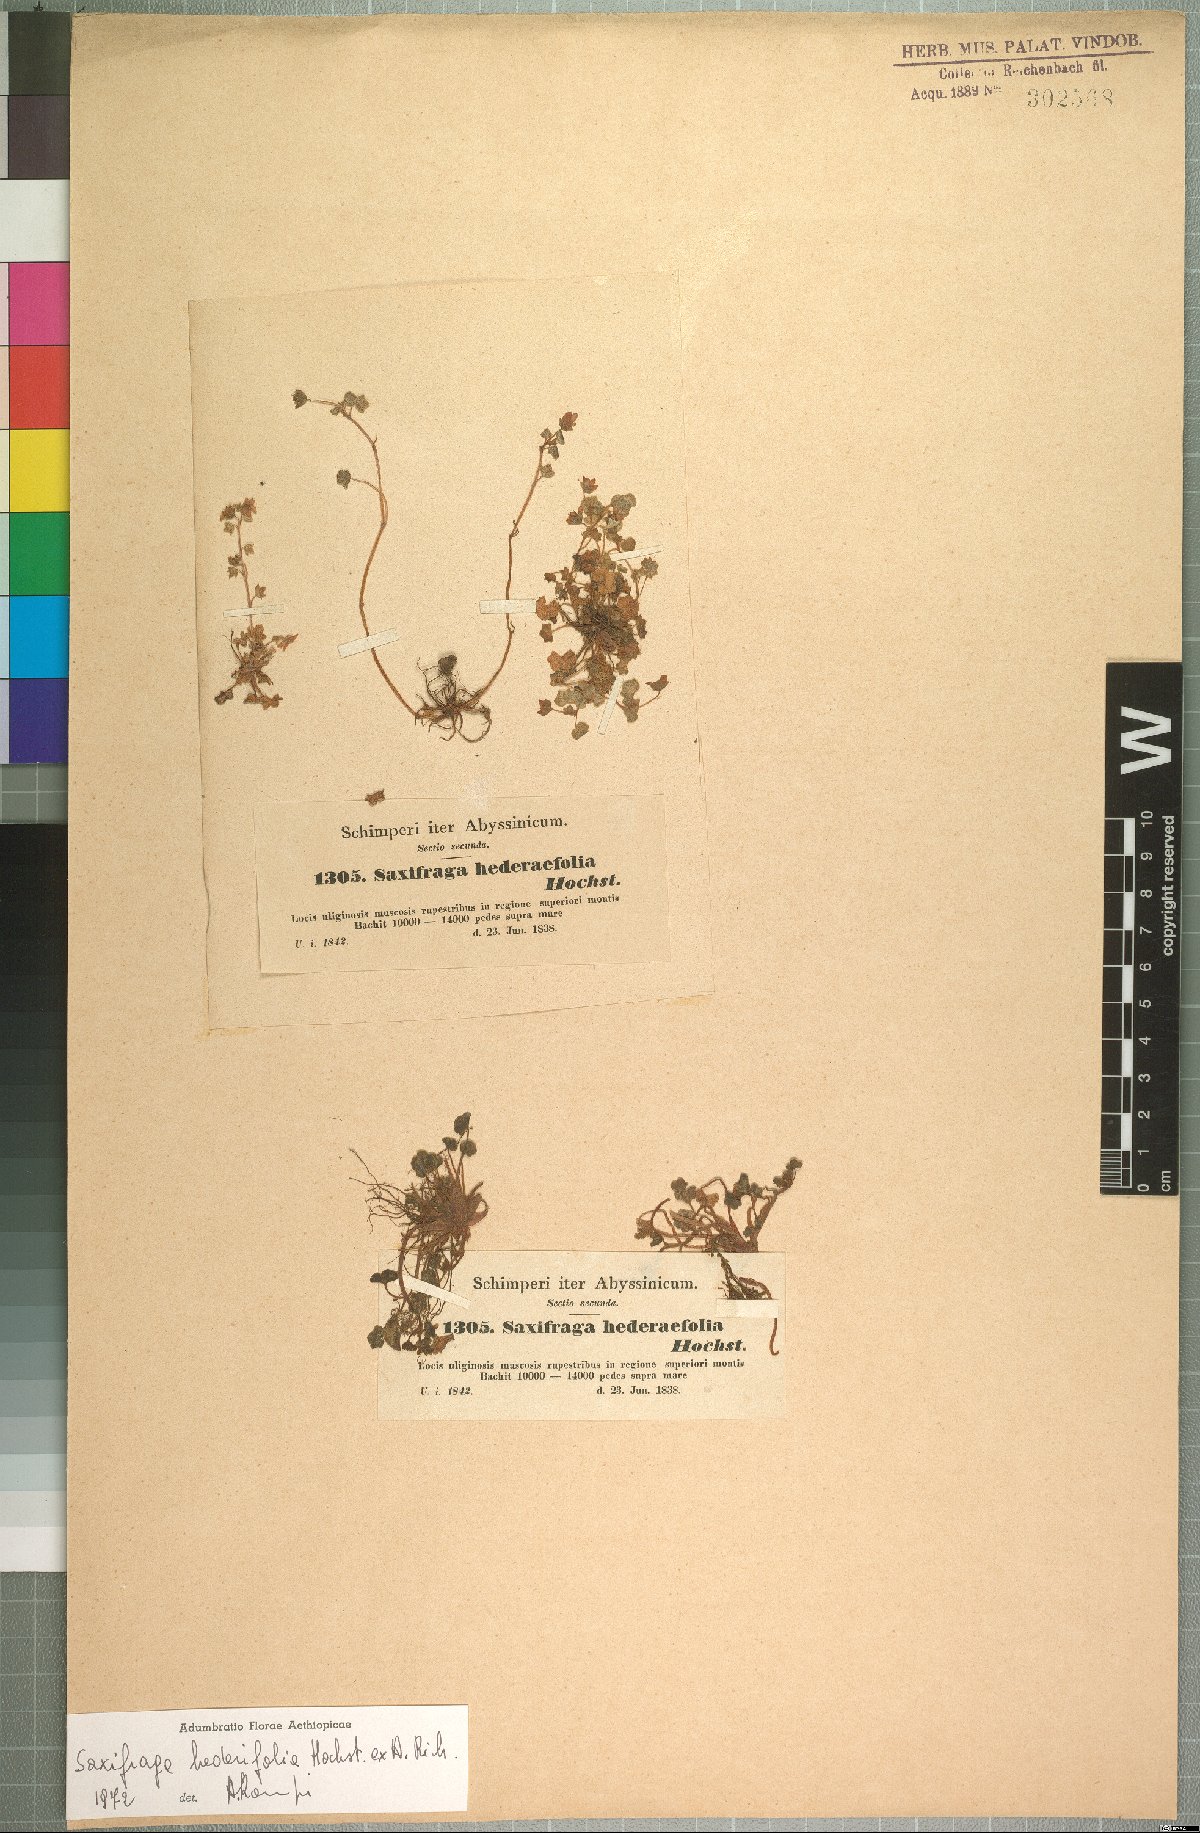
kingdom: Plantae
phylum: Tracheophyta
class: Magnoliopsida
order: Saxifragales
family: Saxifragaceae
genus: Saxifraga
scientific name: Saxifraga hederifolia
